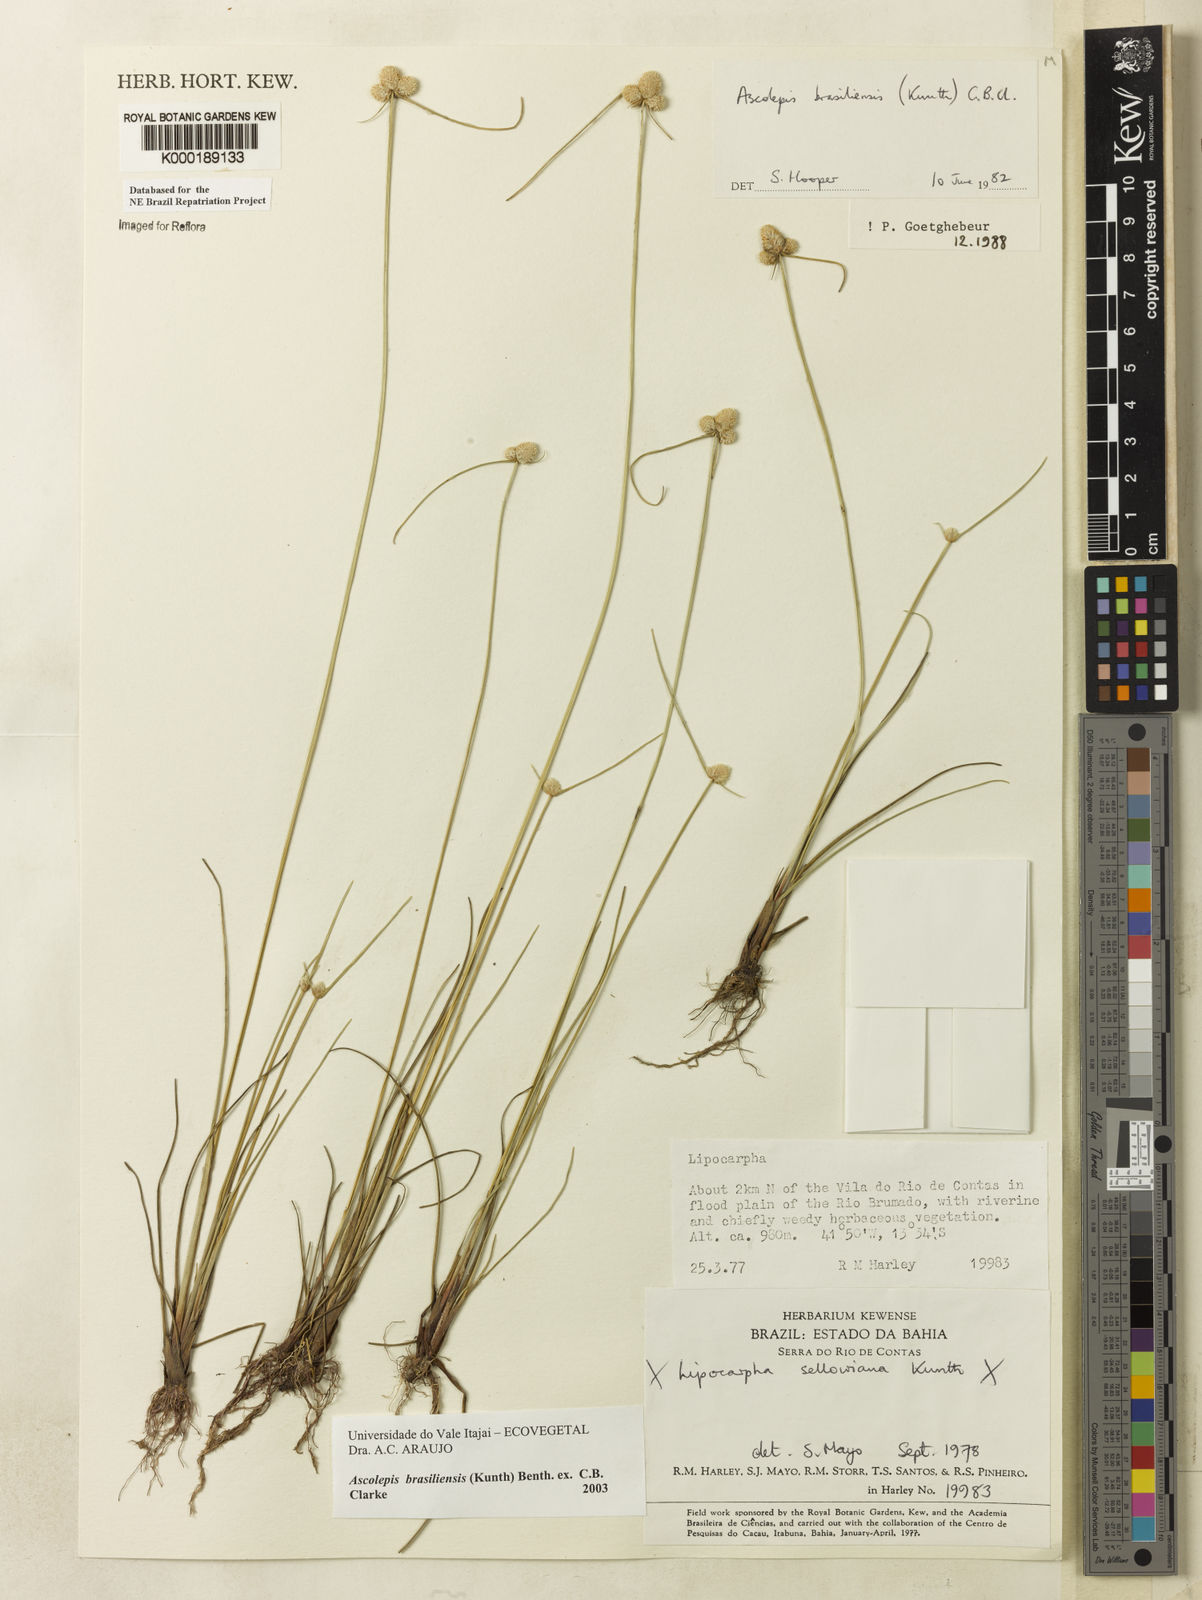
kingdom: Plantae
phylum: Tracheophyta
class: Liliopsida
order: Poales
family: Cyperaceae
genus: Cyperus
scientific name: Cyperus brasiliensis
